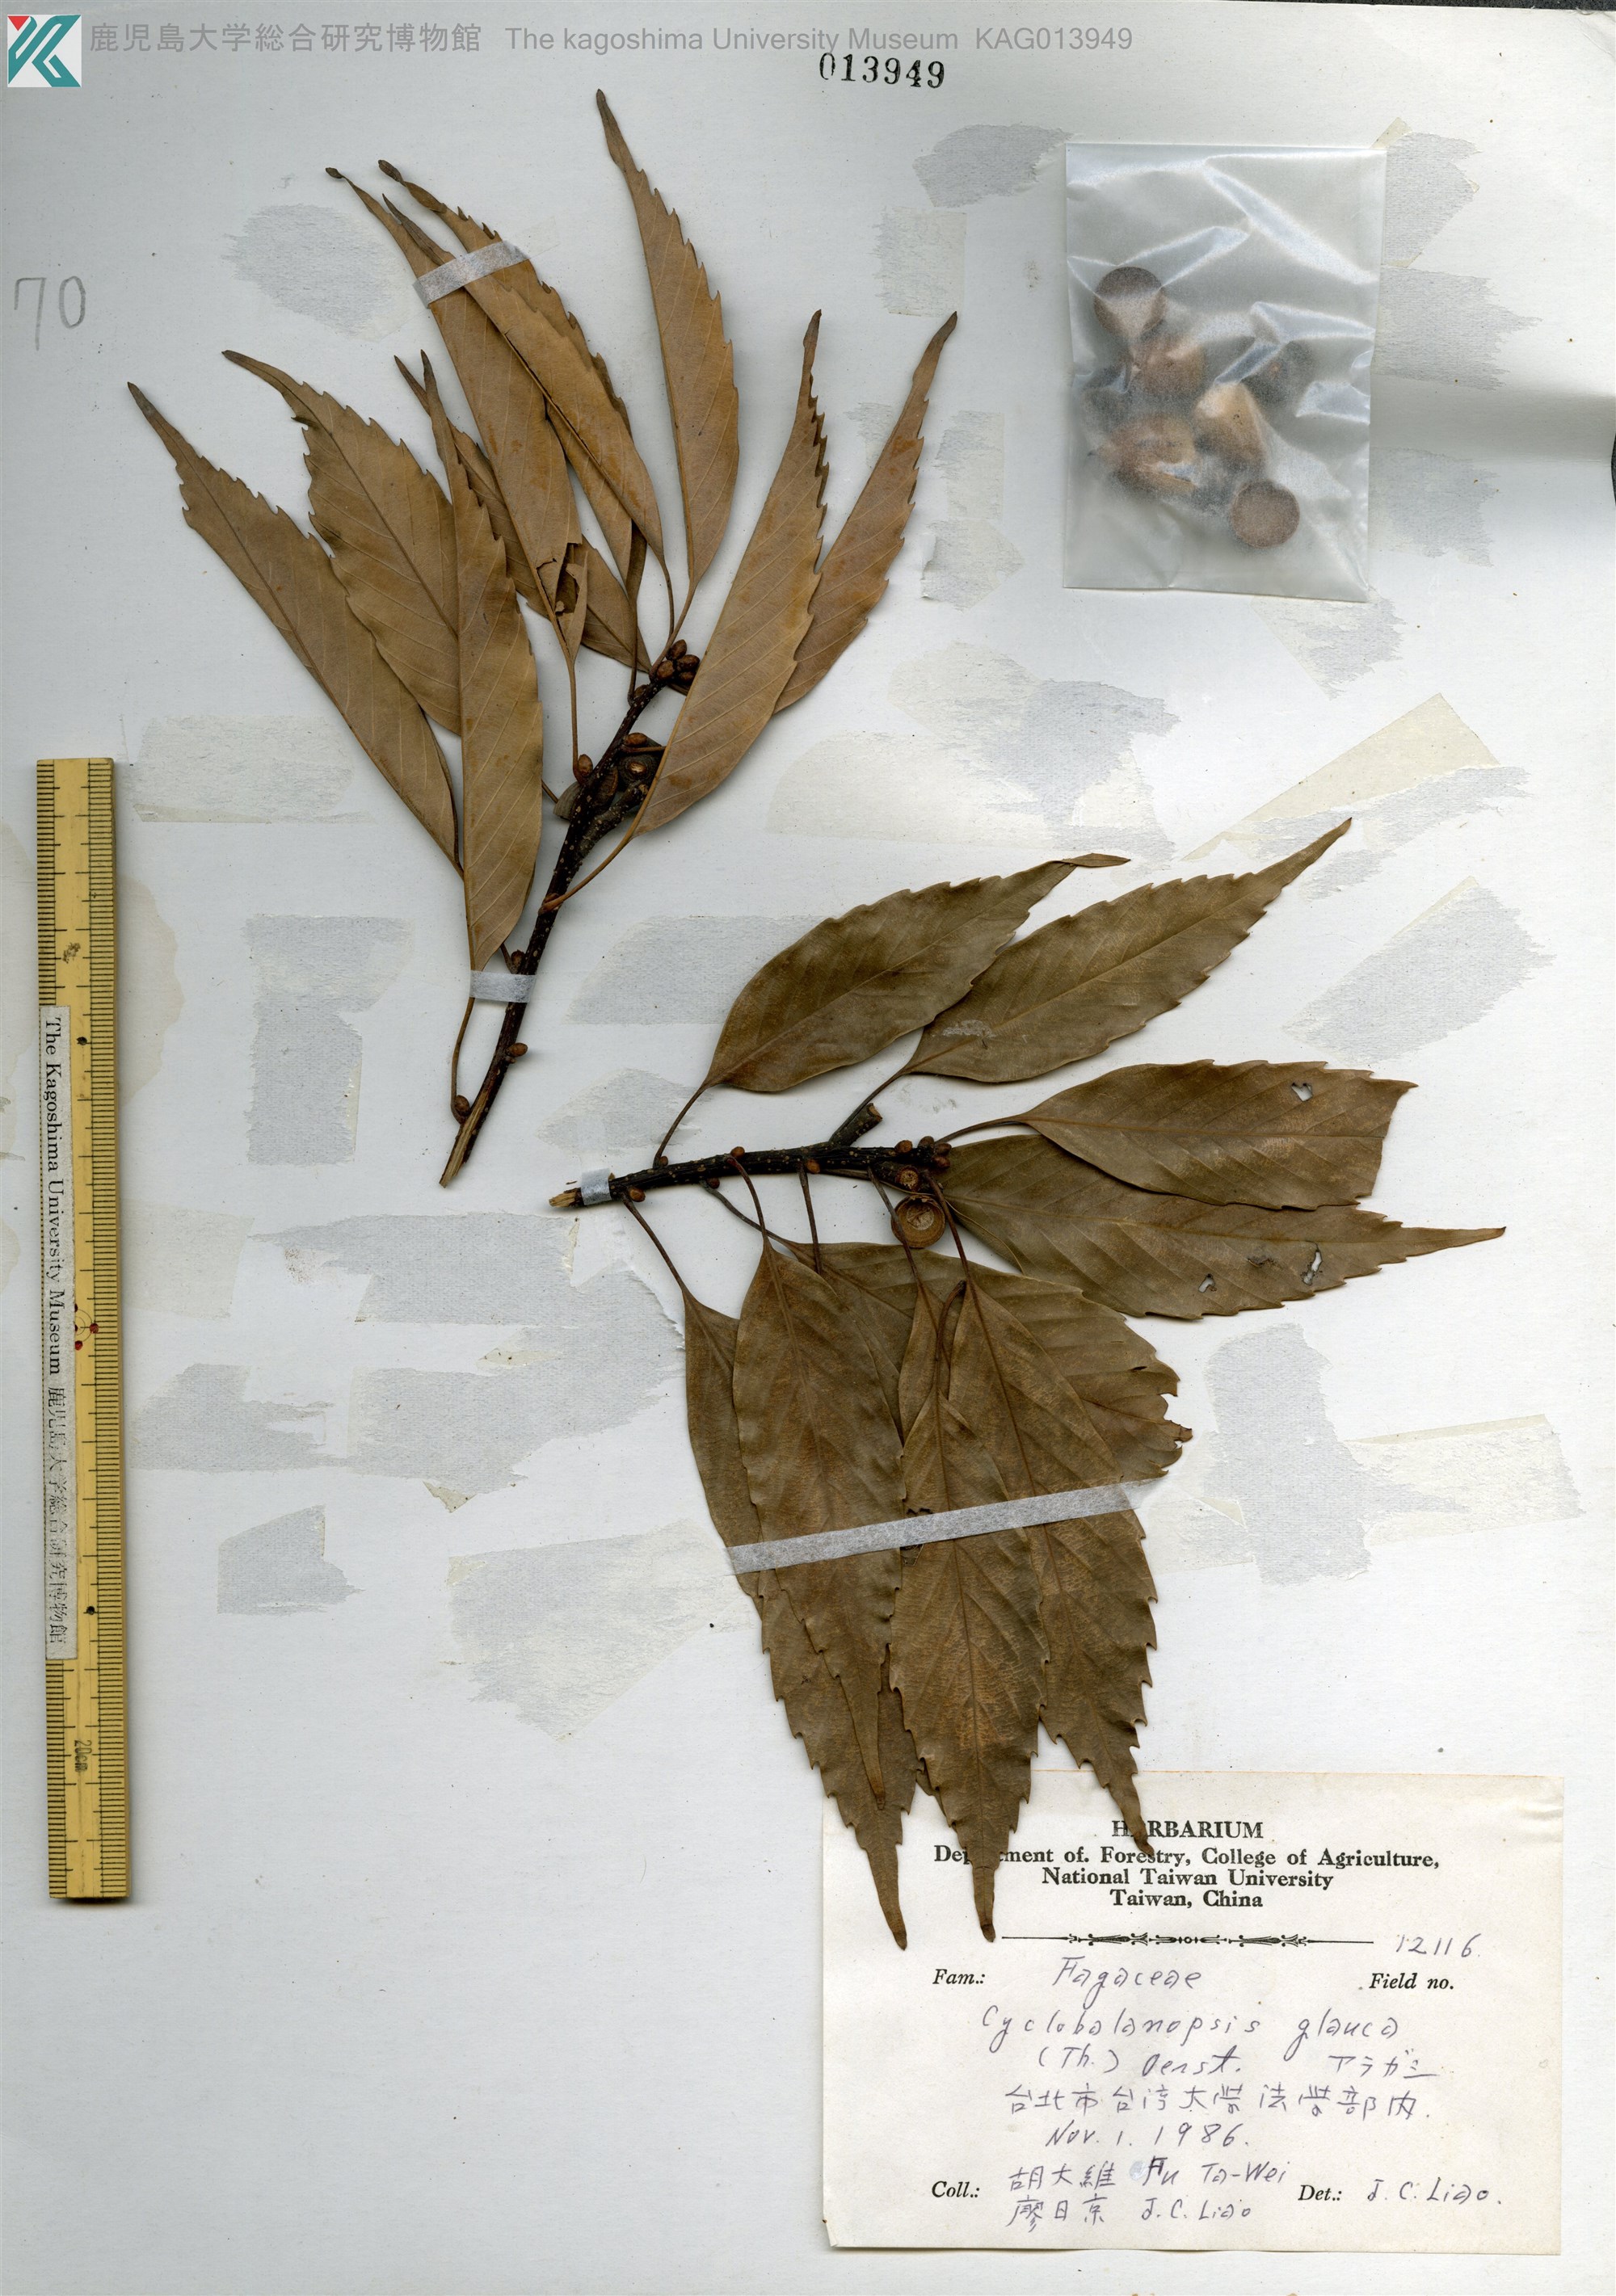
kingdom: Plantae
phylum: Tracheophyta
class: Magnoliopsida
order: Fagales
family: Fagaceae
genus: Quercus
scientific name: Quercus glauca
